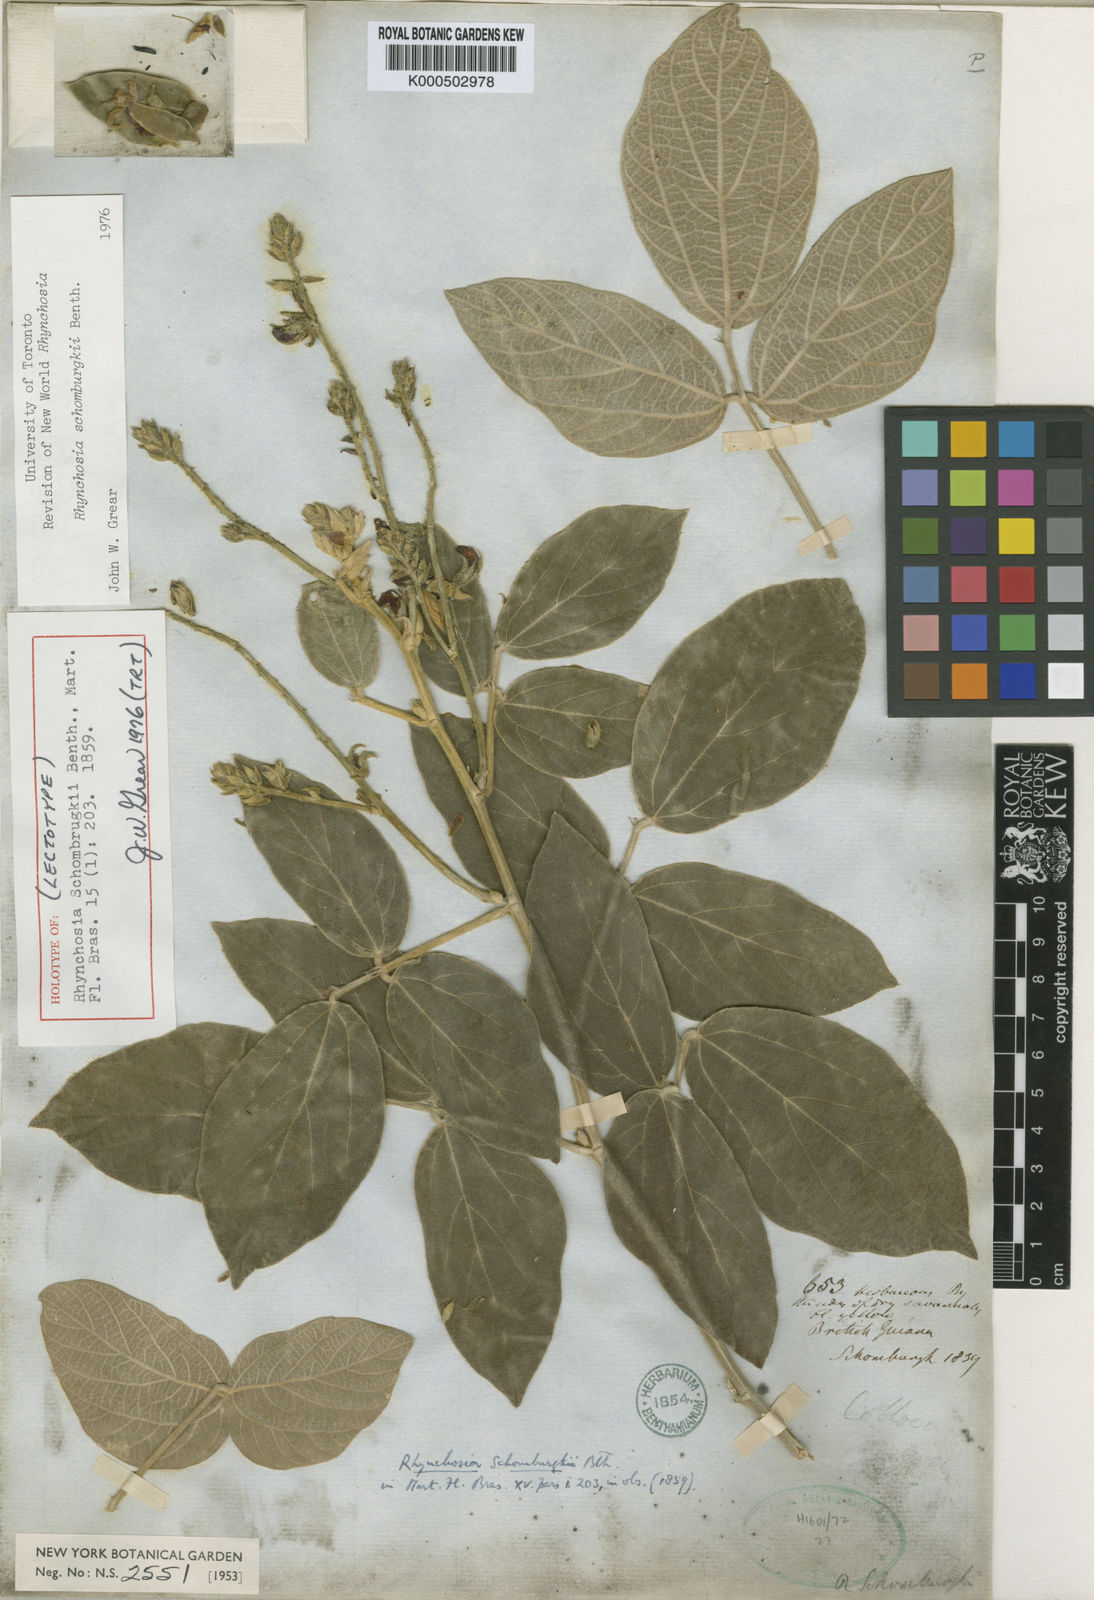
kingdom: Plantae
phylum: Tracheophyta
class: Magnoliopsida
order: Fabales
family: Fabaceae
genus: Rhynchosia
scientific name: Rhynchosia schomburgkii
